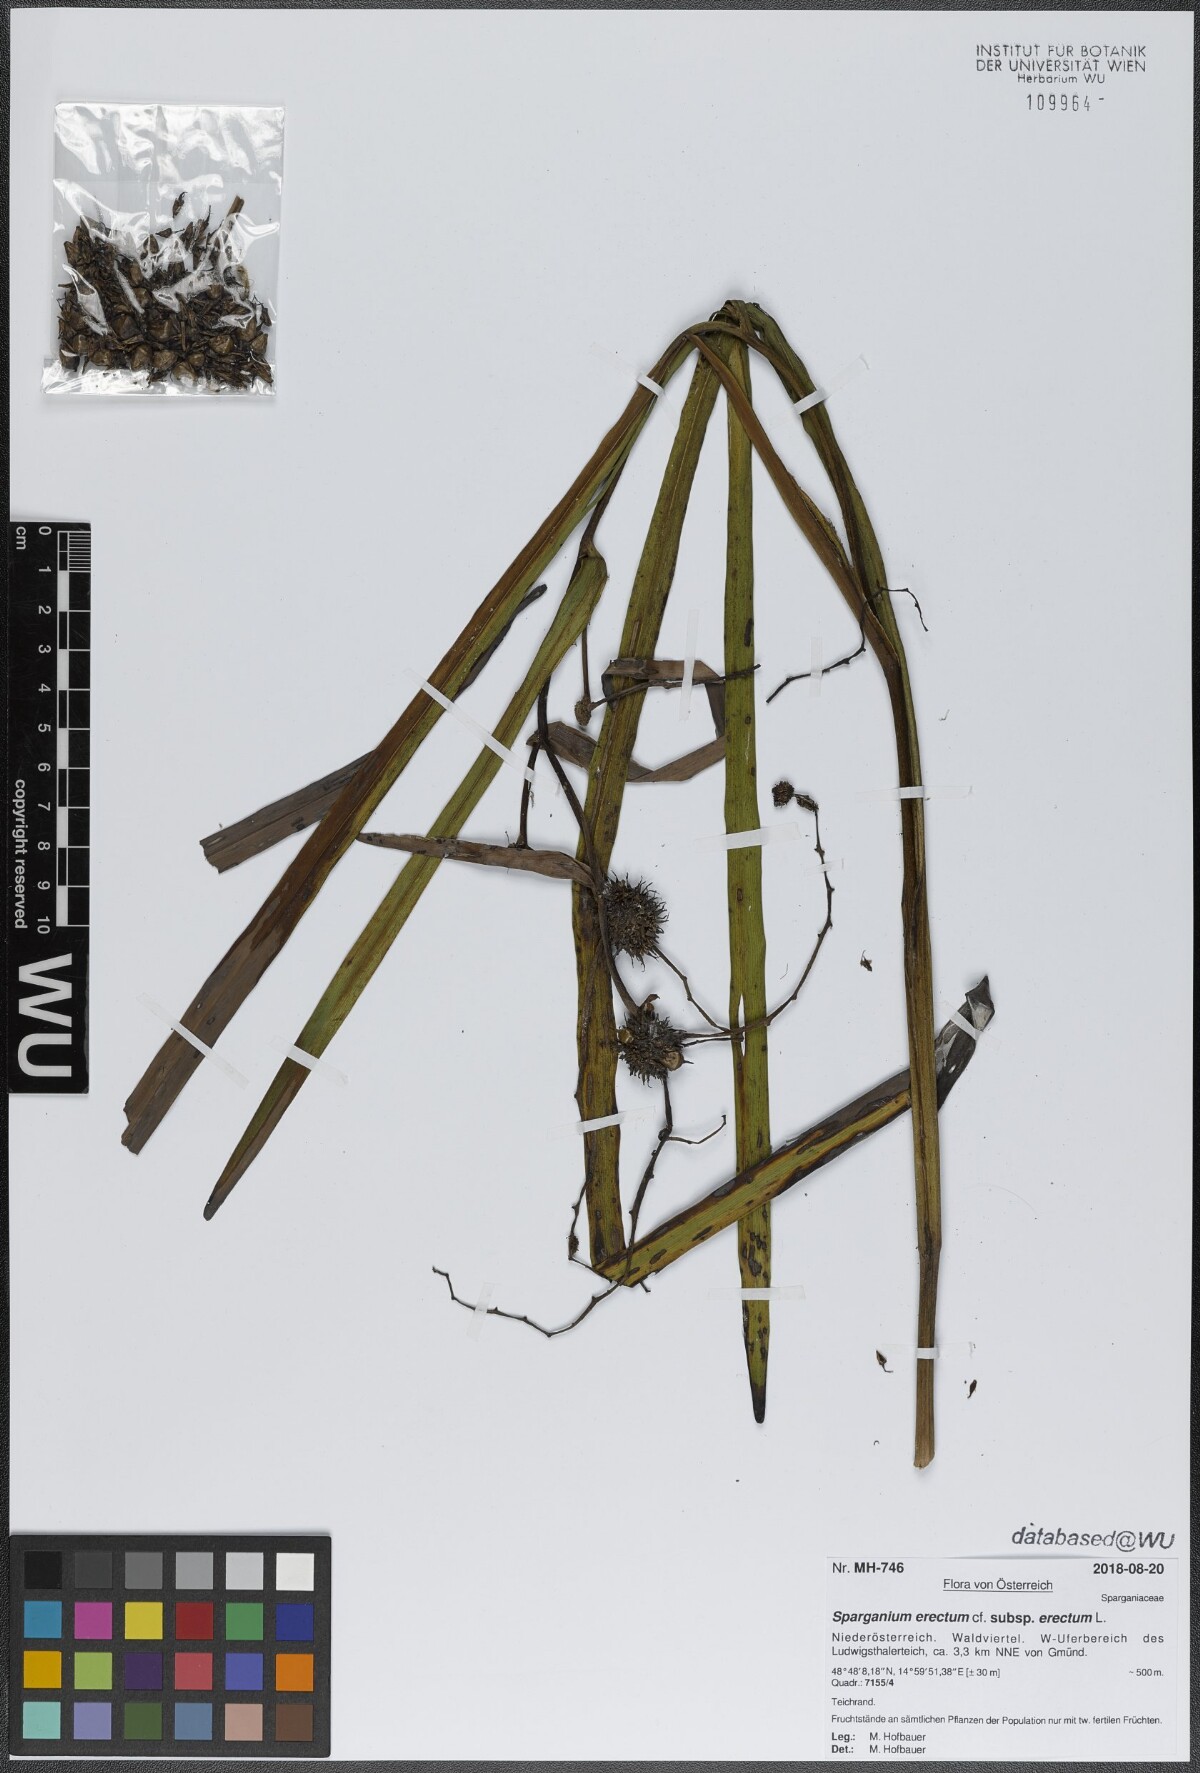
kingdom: Plantae
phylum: Tracheophyta
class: Liliopsida
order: Poales
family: Typhaceae
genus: Sparganium
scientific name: Sparganium erectum
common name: Branched bur-reed
